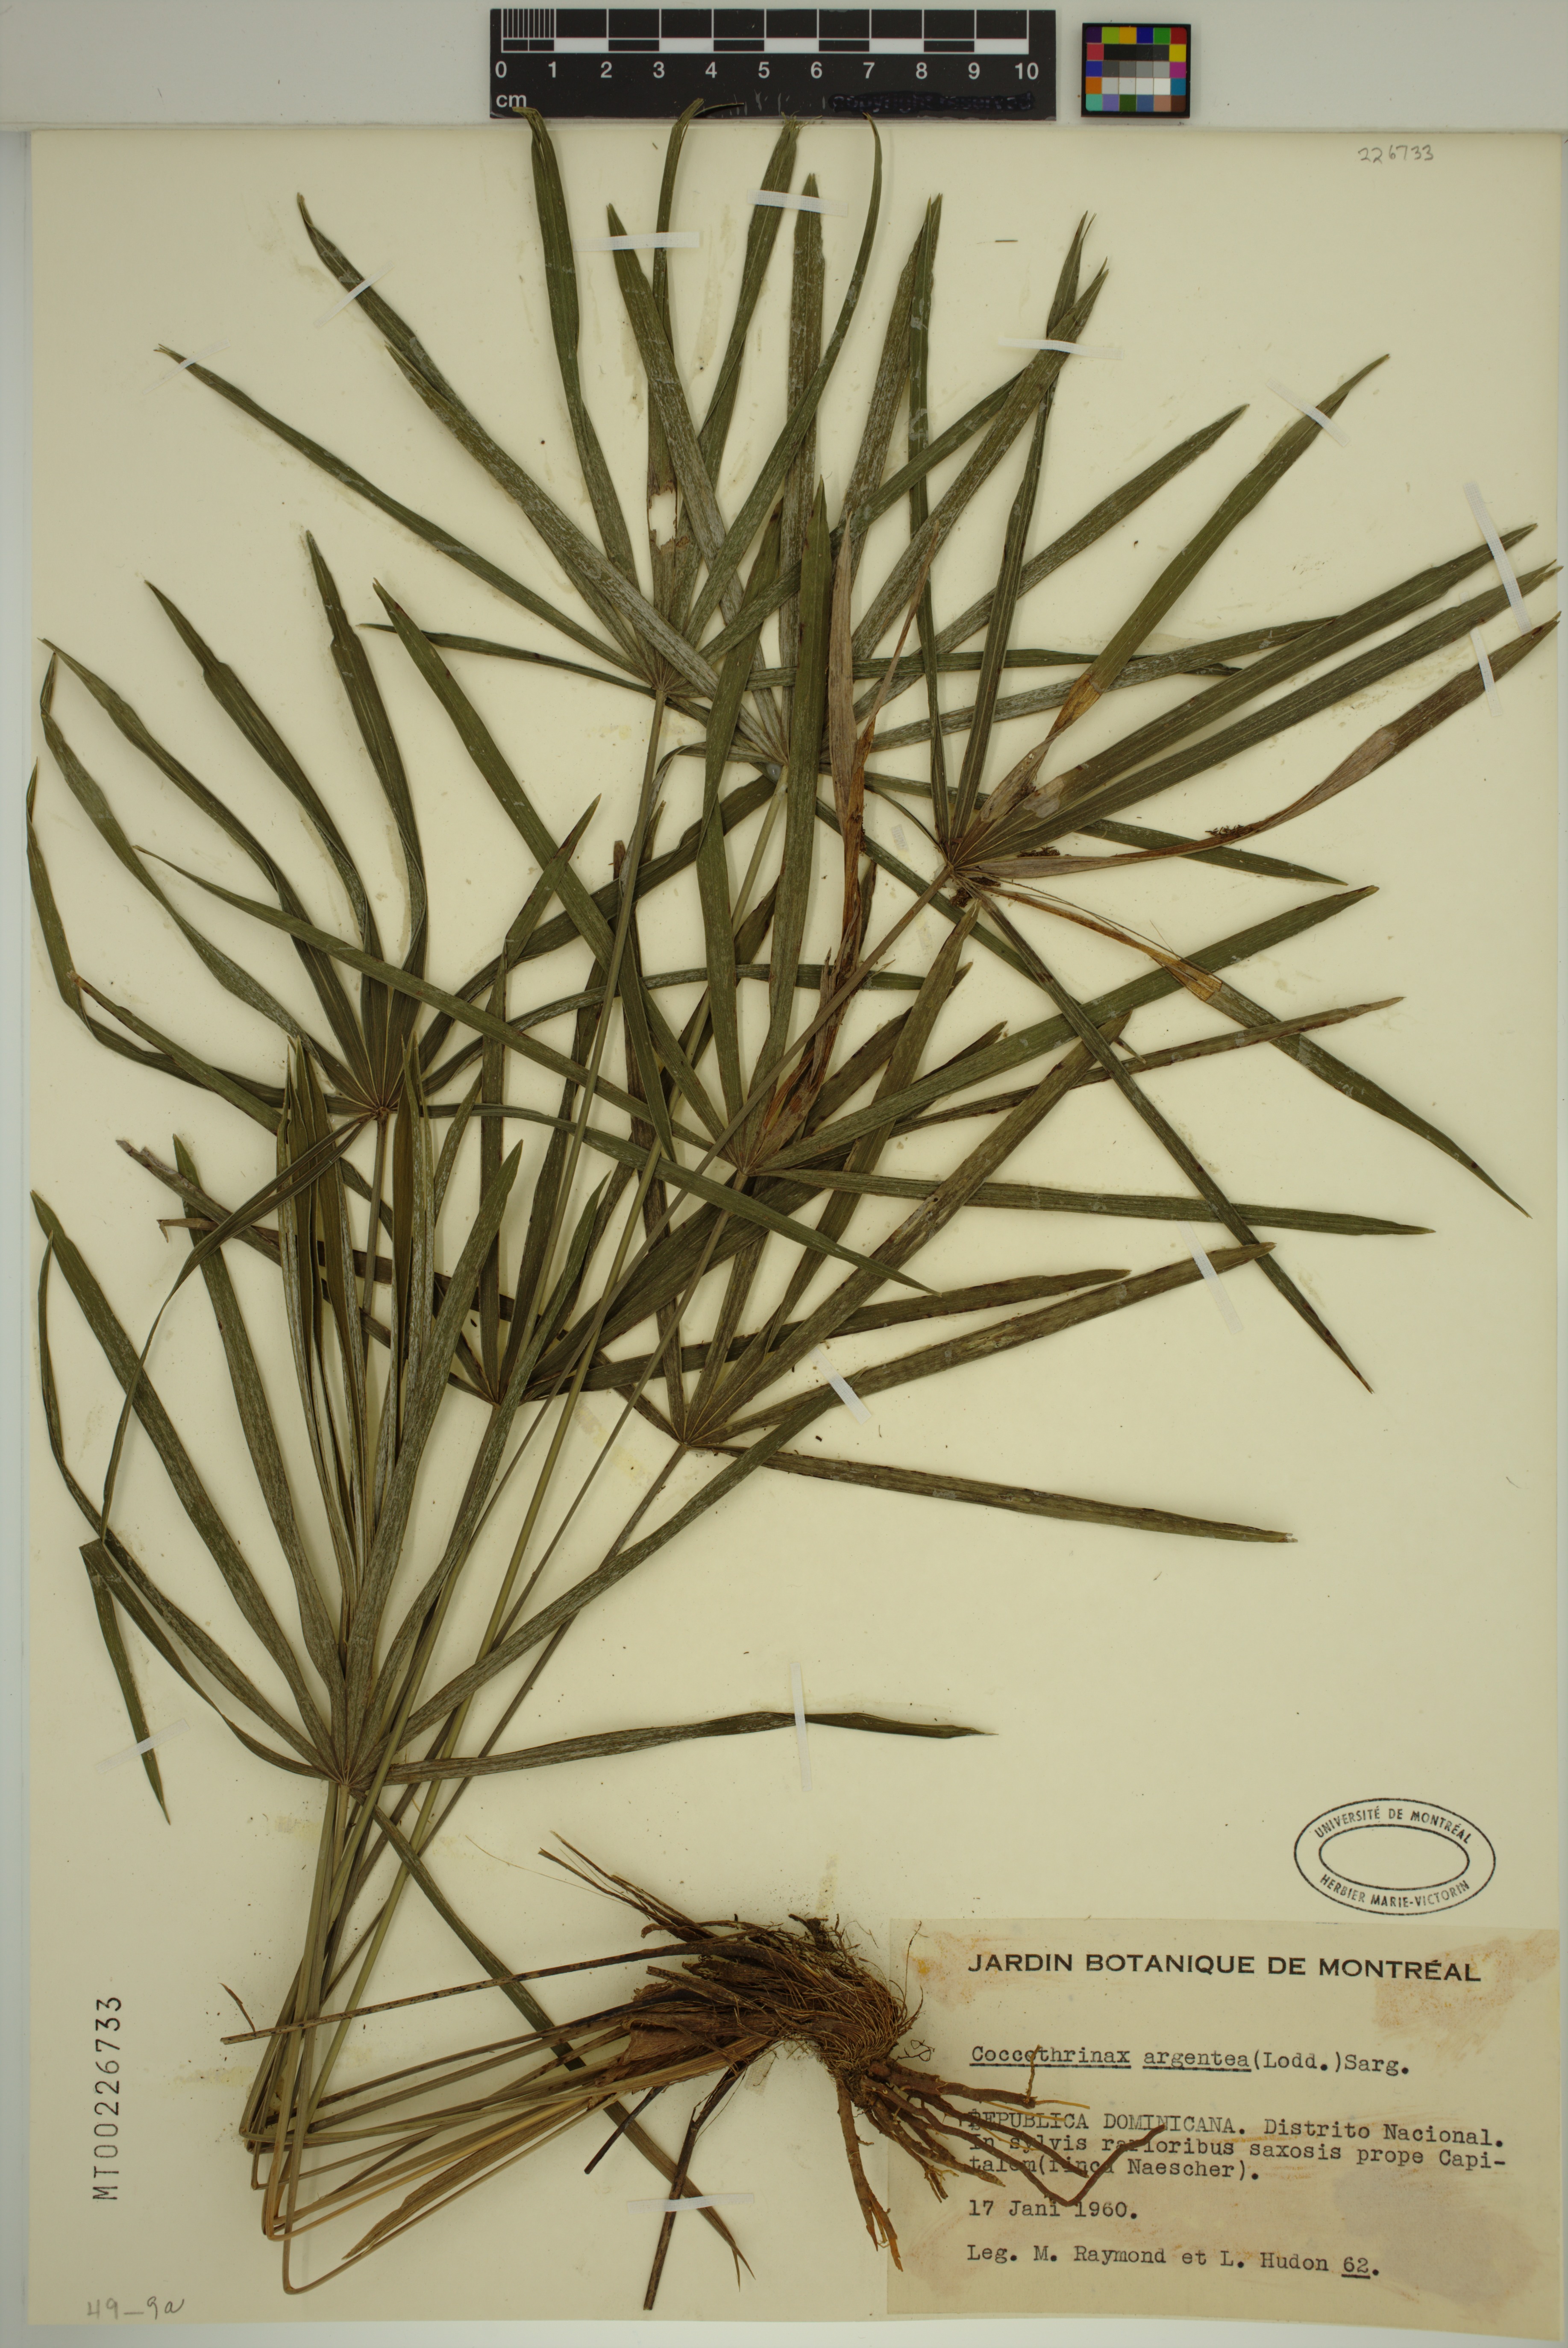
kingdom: Plantae
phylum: Tracheophyta
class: Liliopsida
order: Arecales
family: Arecaceae
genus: Coccothrinax
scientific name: Coccothrinax argentea
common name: Broom palm
